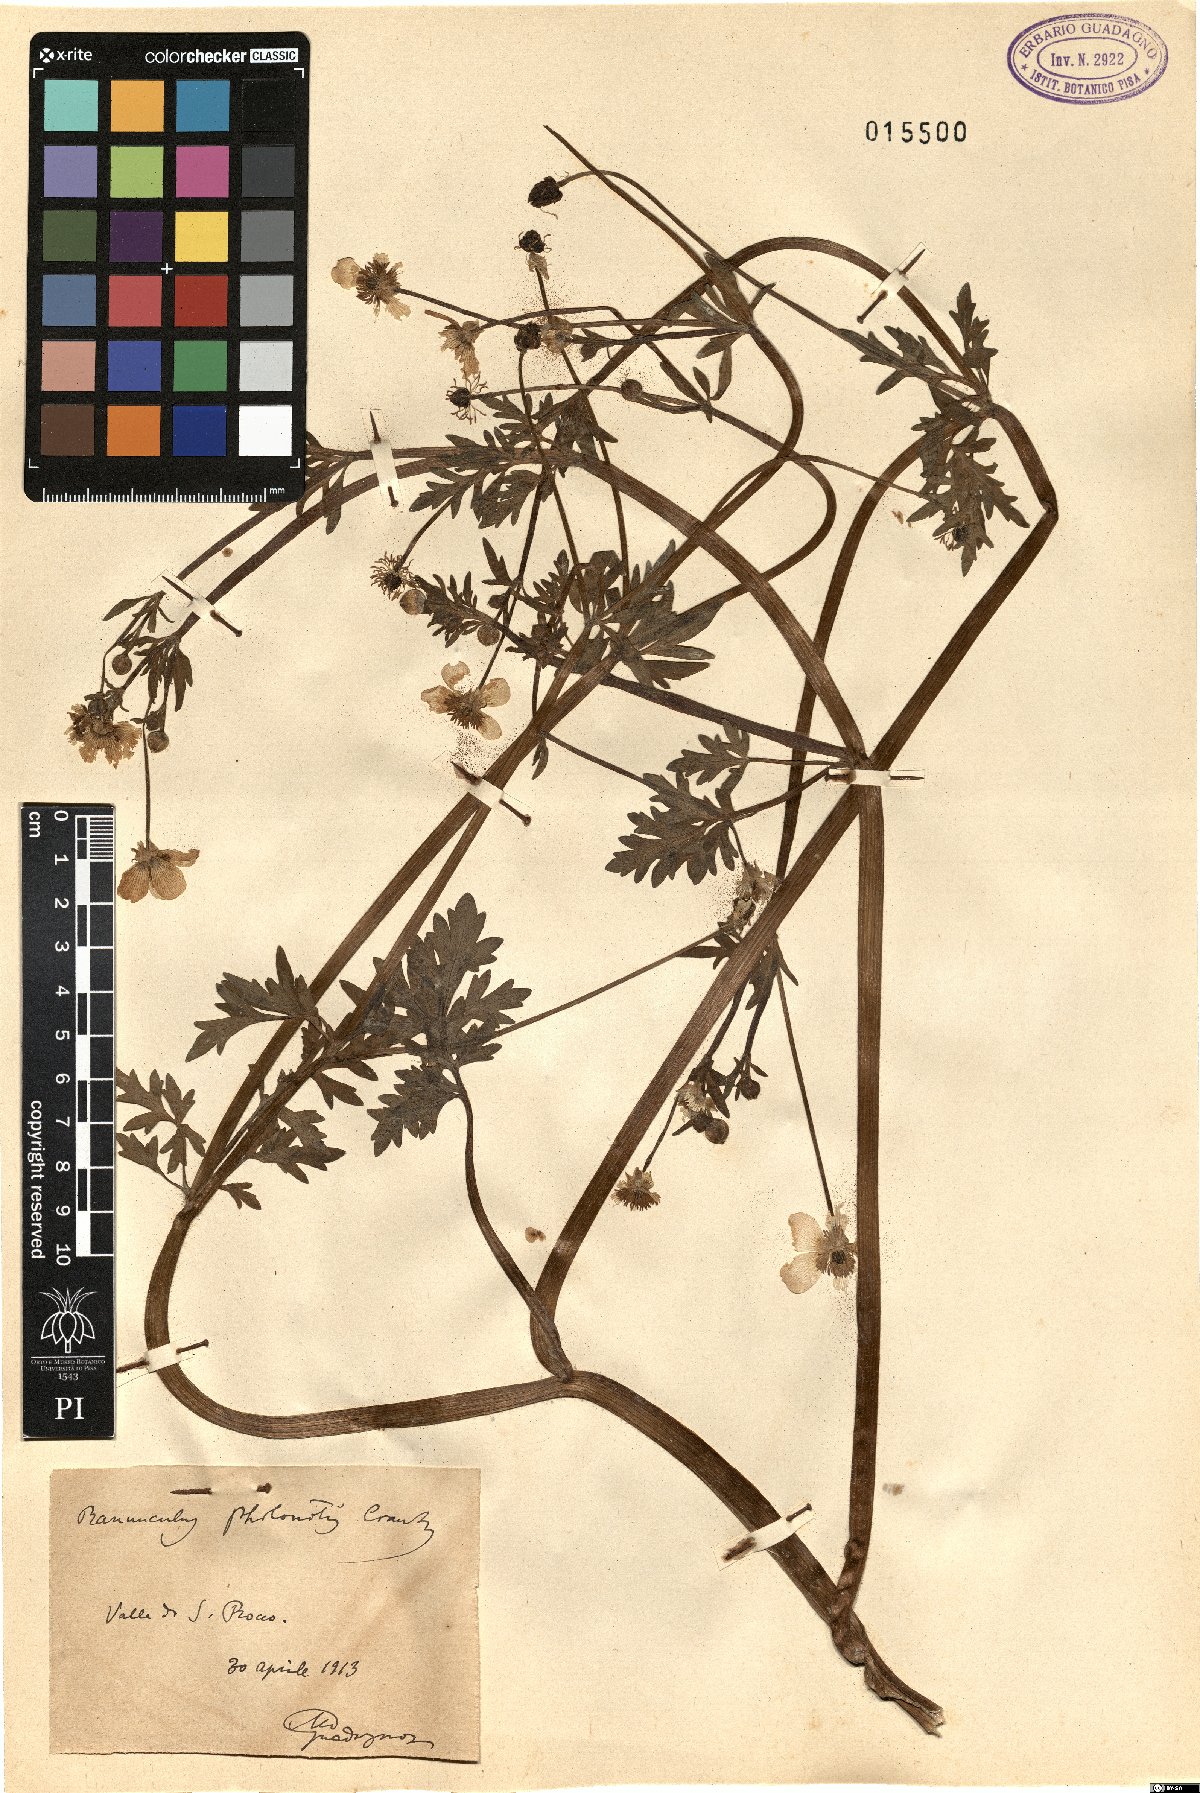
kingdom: Plantae
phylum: Tracheophyta
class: Magnoliopsida
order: Ranunculales
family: Ranunculaceae
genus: Ranunculus
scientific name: Ranunculus sardous
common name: Hairy buttercup
